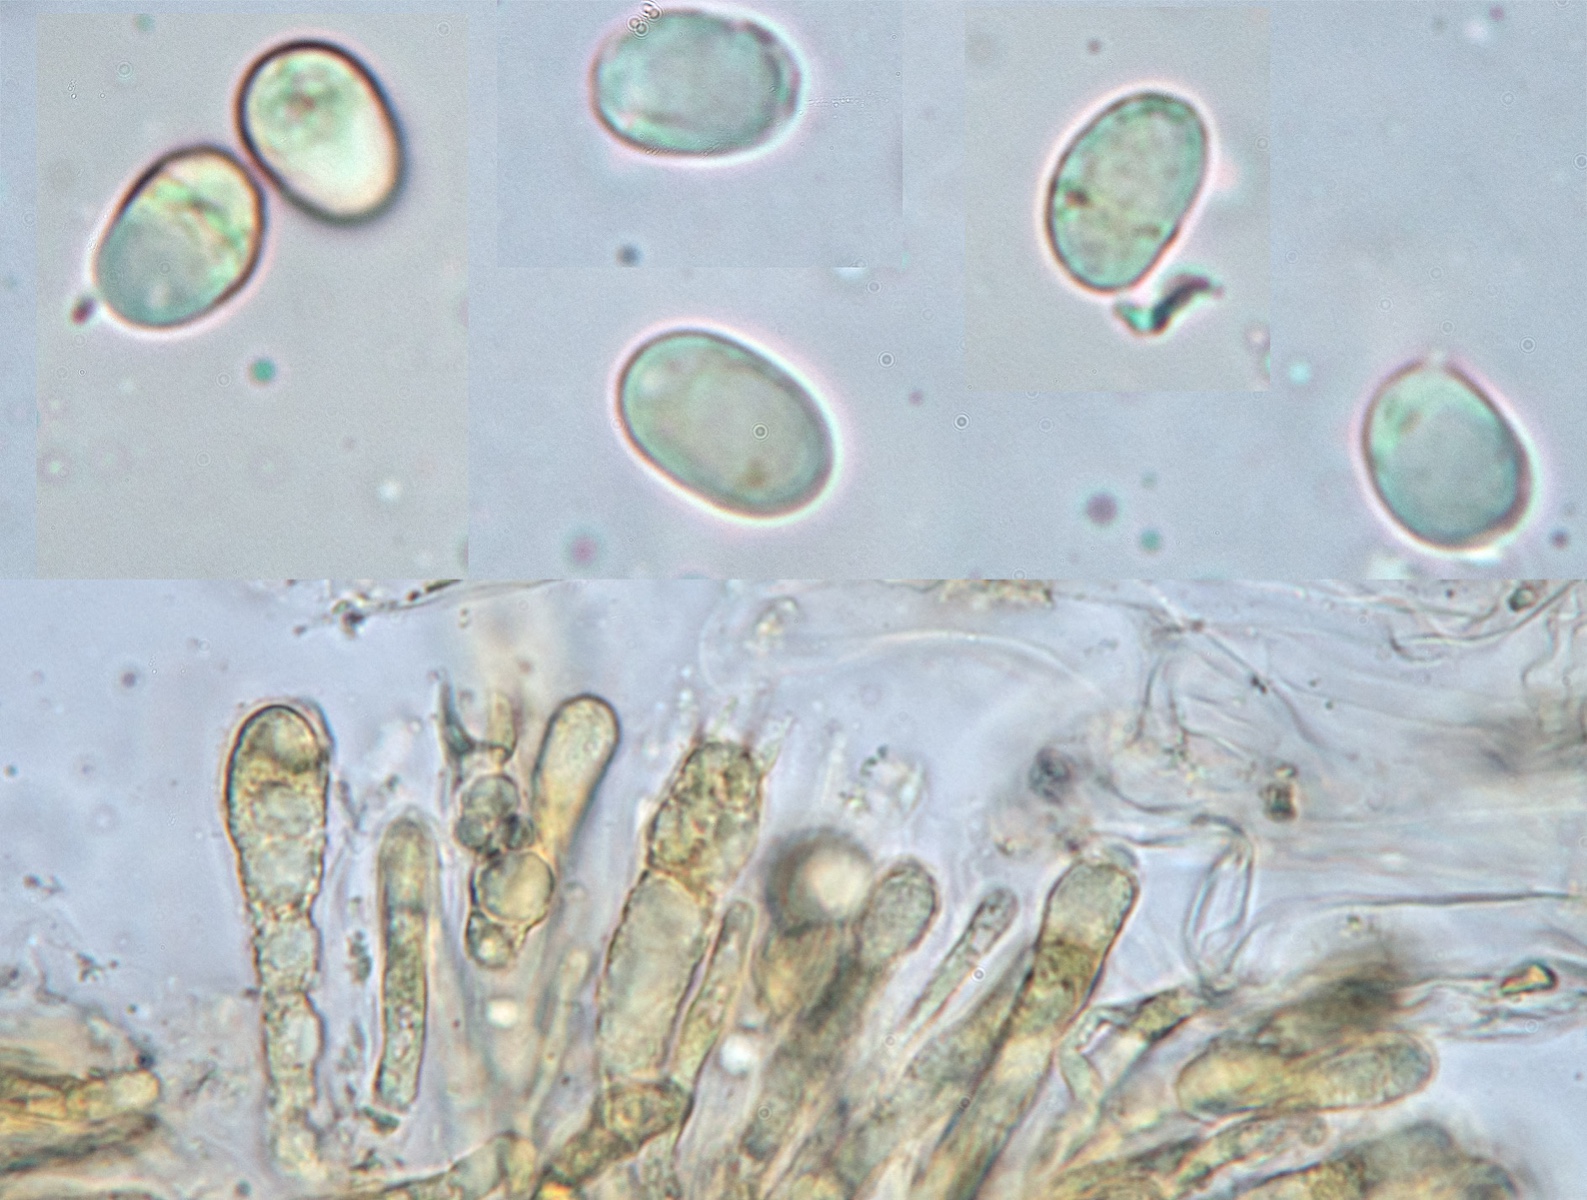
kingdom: Fungi
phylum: Basidiomycota
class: Agaricomycetes
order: Agaricales
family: Callistosporiaceae
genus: Pseudolaccaria
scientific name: Pseudolaccaria pachyphylla
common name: hvælvet tykblad
